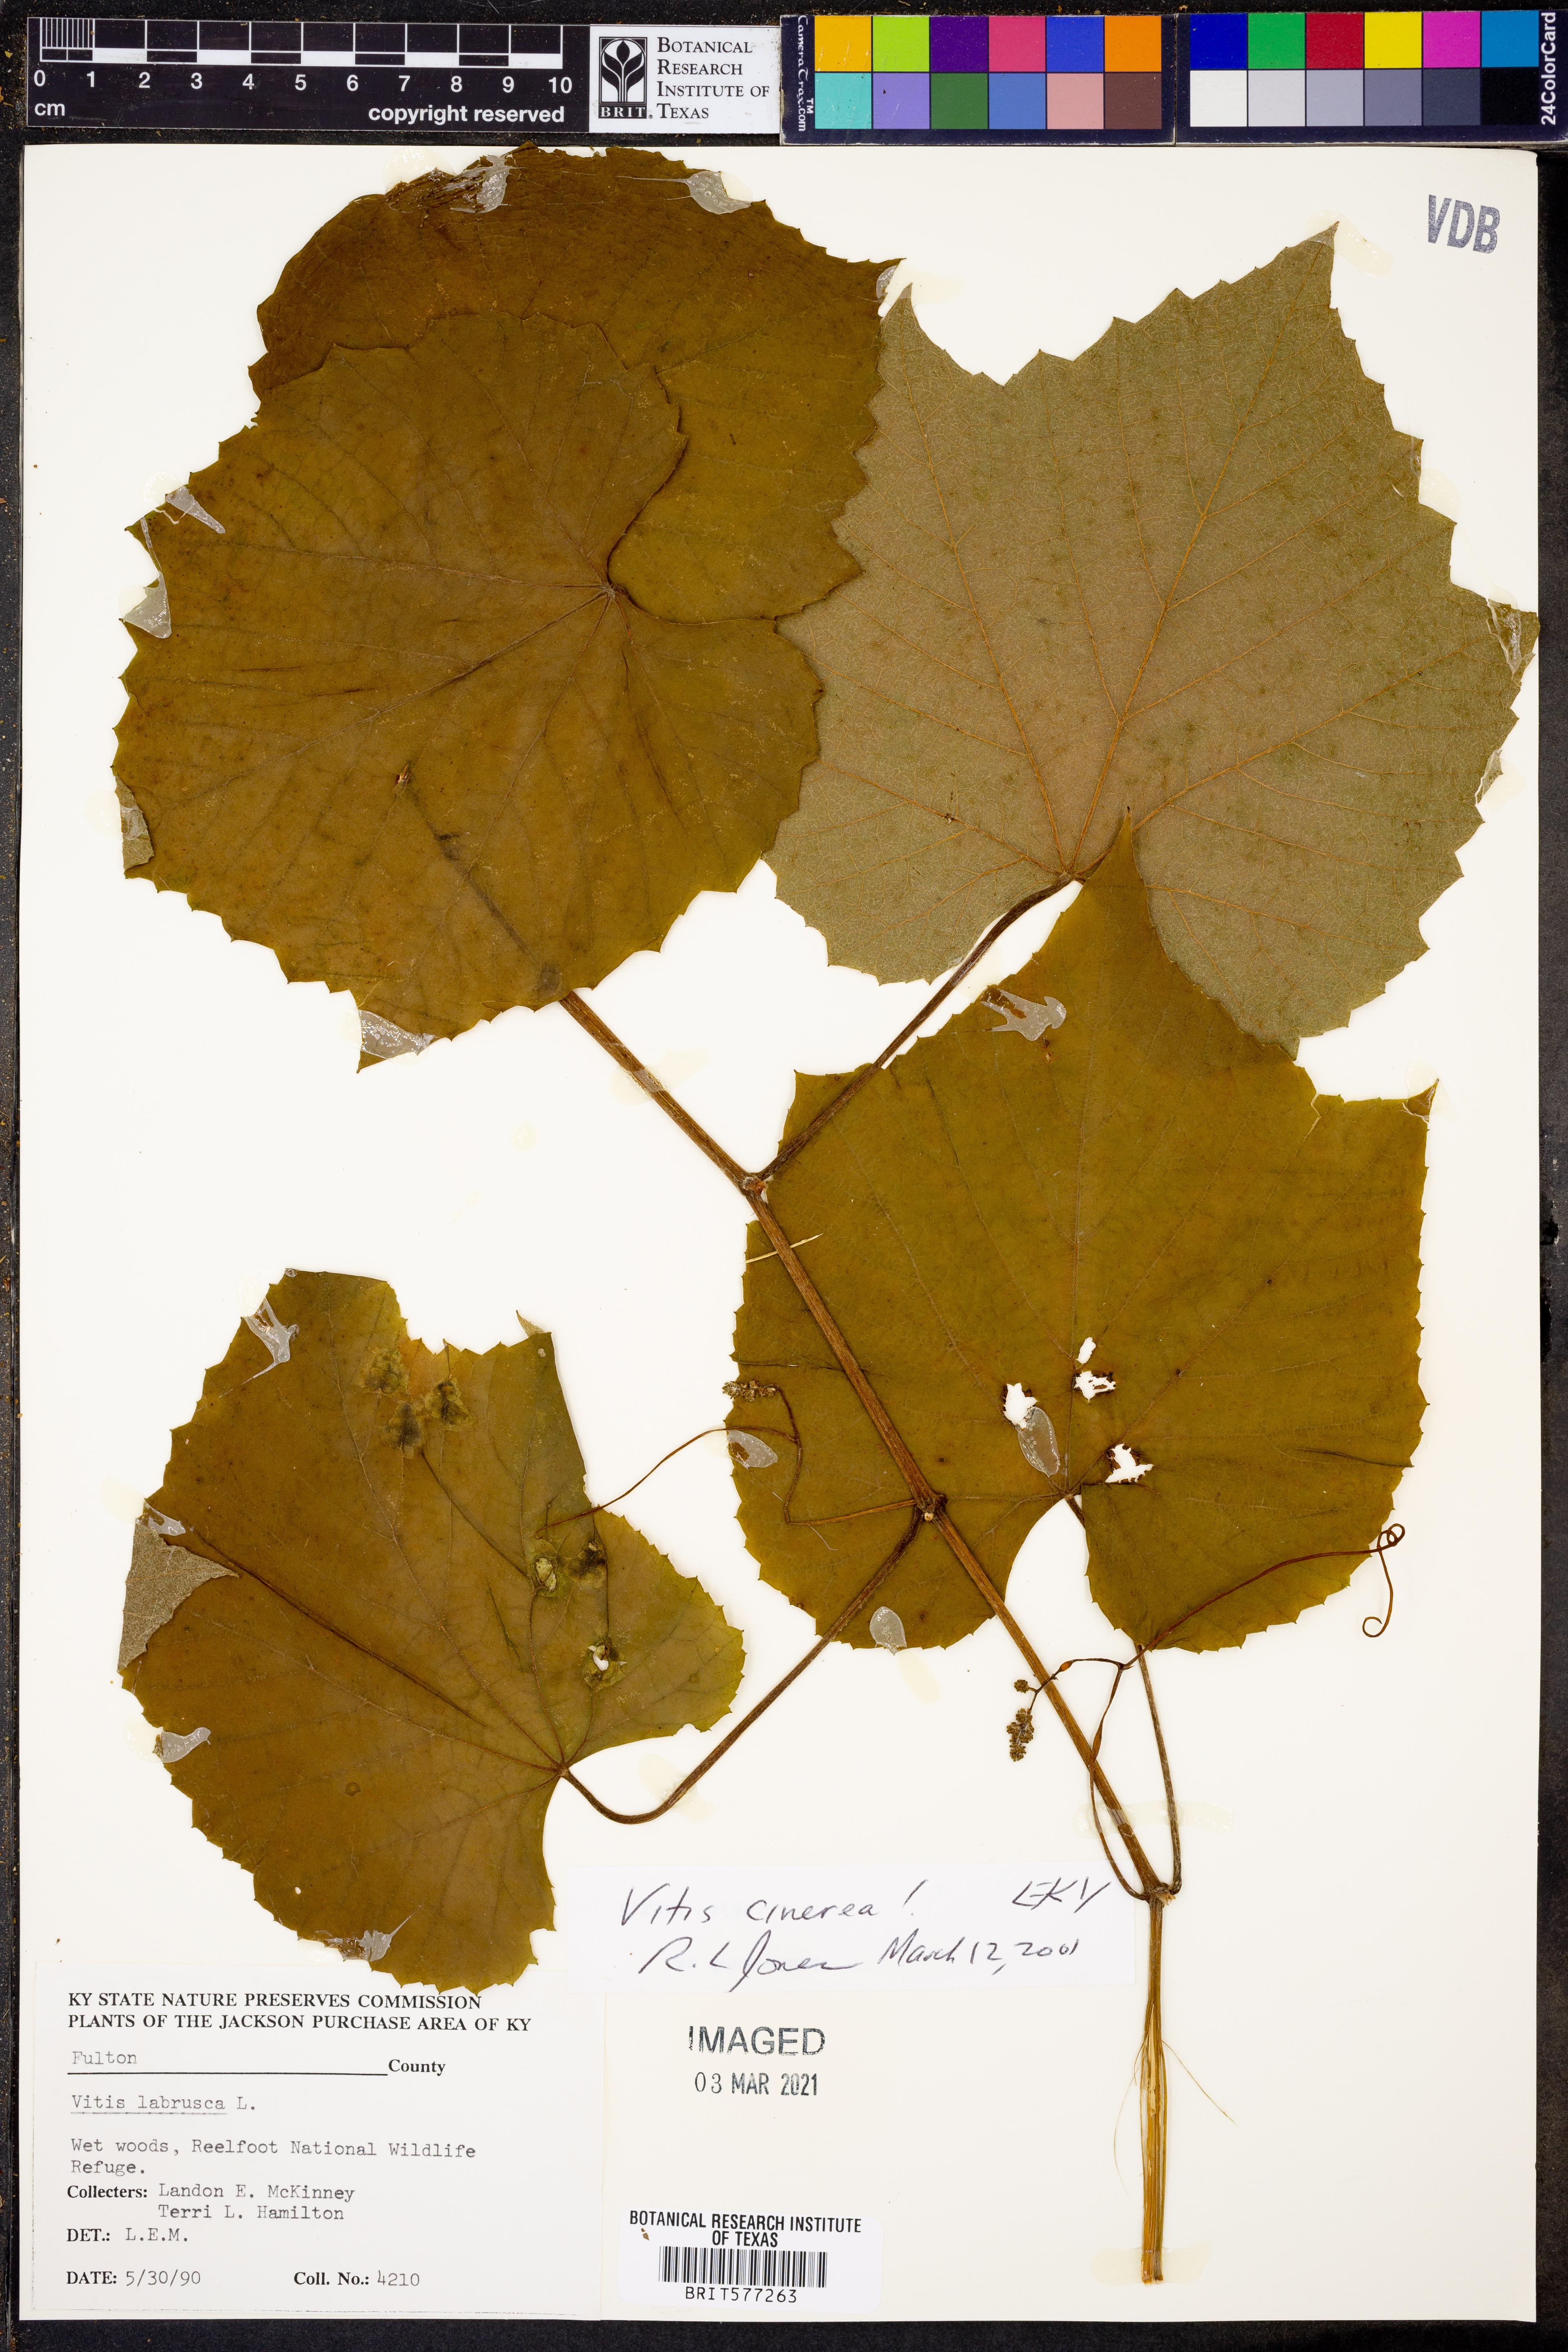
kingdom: Plantae
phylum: Tracheophyta
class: Magnoliopsida
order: Vitales
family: Vitaceae
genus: Vitis
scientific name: Vitis cinerea
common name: Ashy grape
